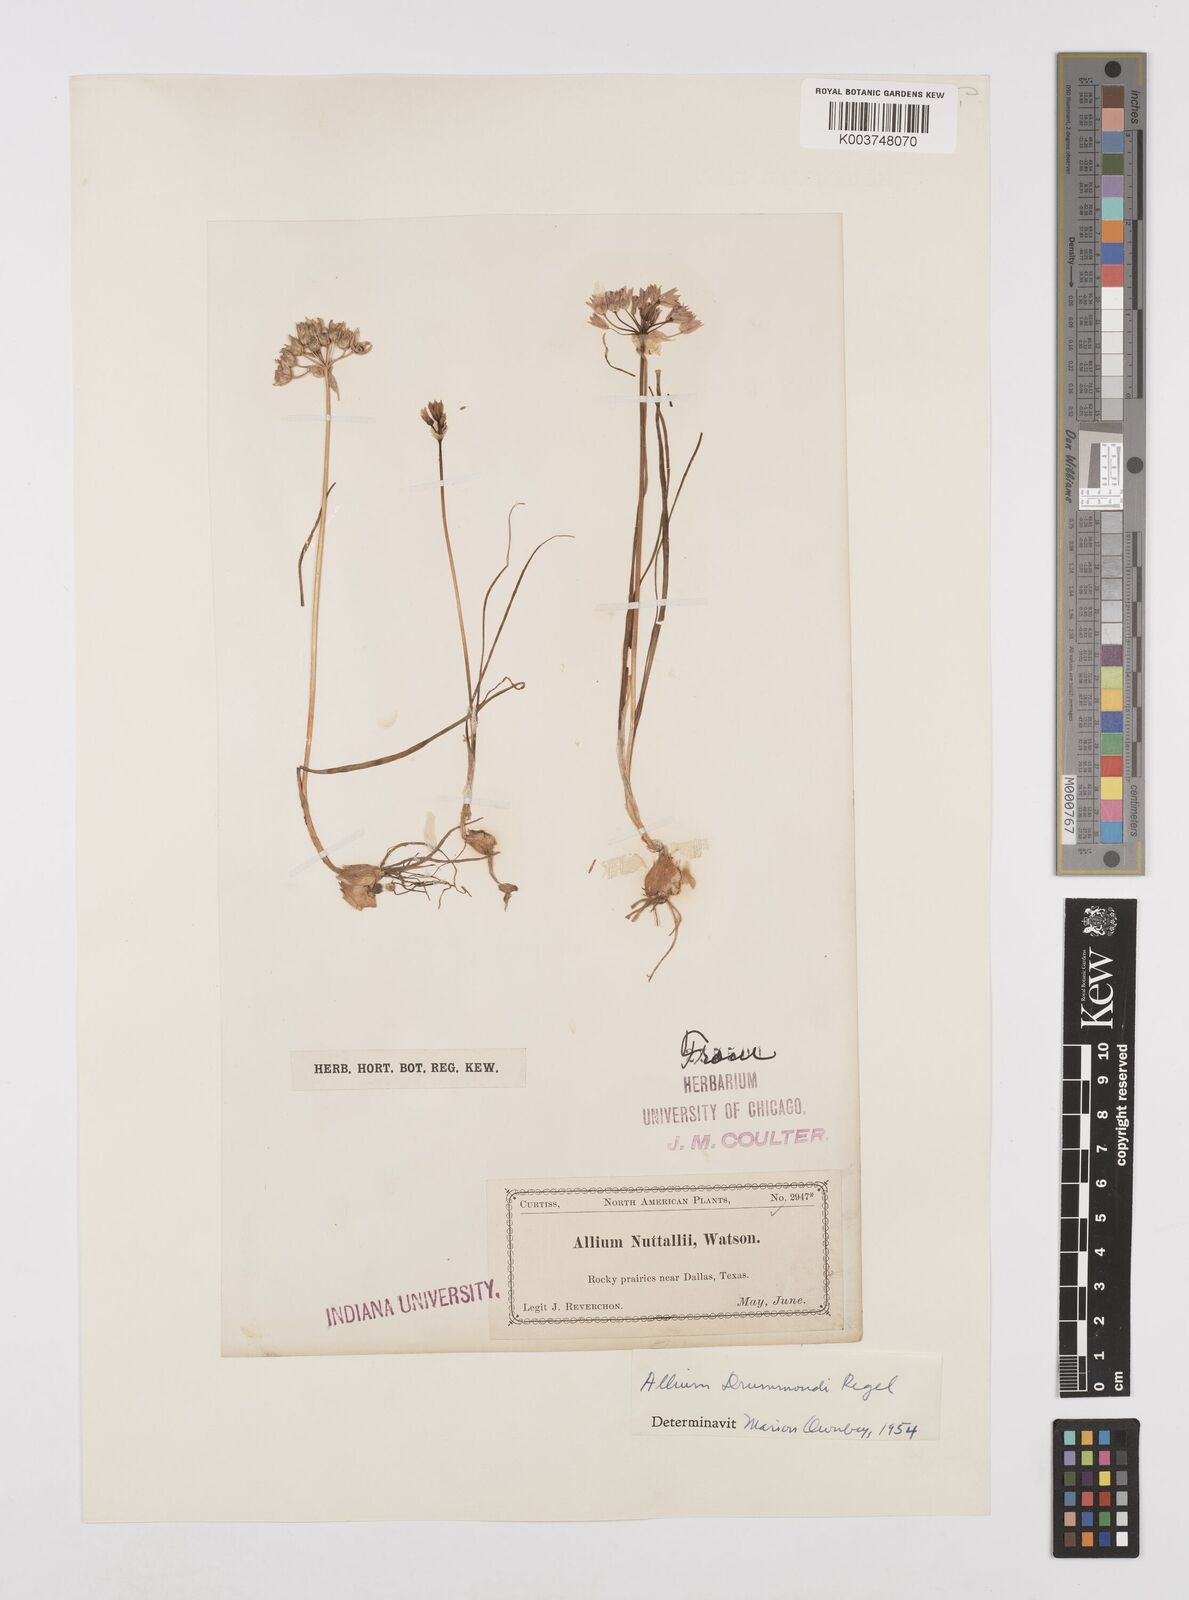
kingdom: Plantae
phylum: Tracheophyta
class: Liliopsida
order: Asparagales
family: Amaryllidaceae
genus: Allium
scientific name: Allium drummondii
